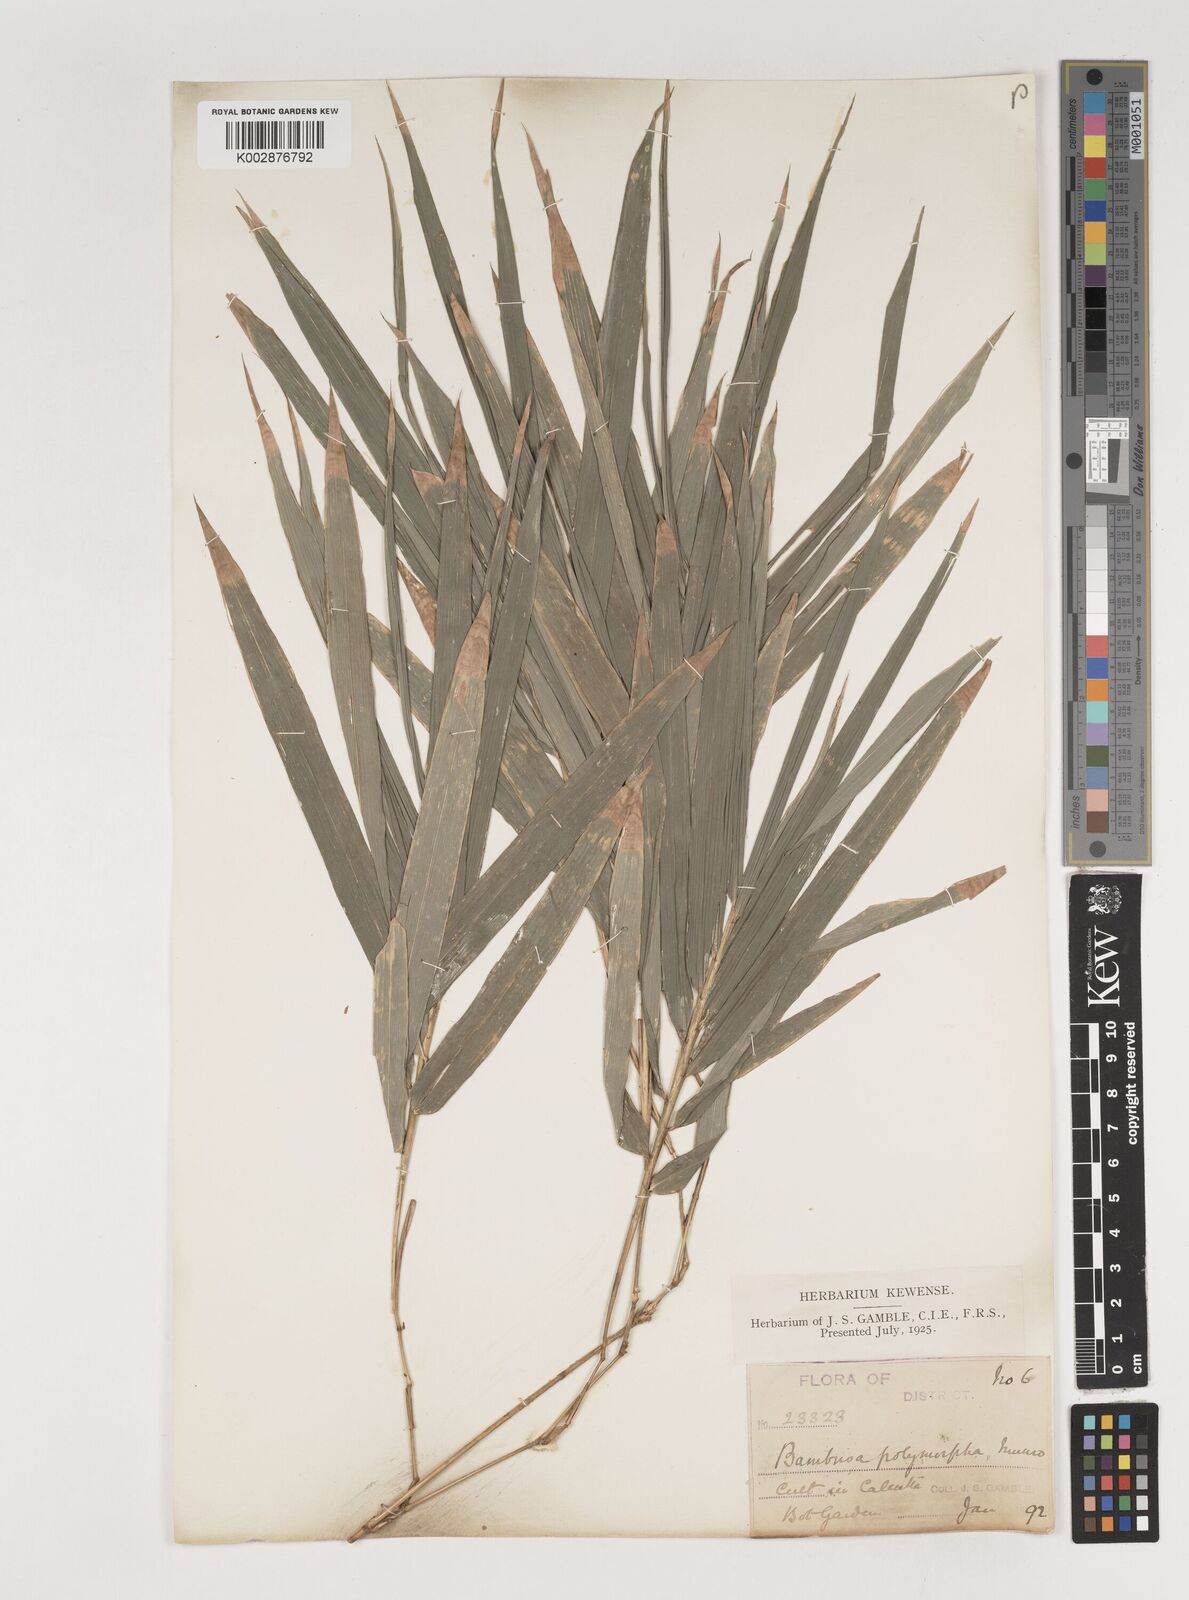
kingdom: Plantae
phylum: Tracheophyta
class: Liliopsida
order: Poales
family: Poaceae
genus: Bambusa
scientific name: Bambusa polymorpha
